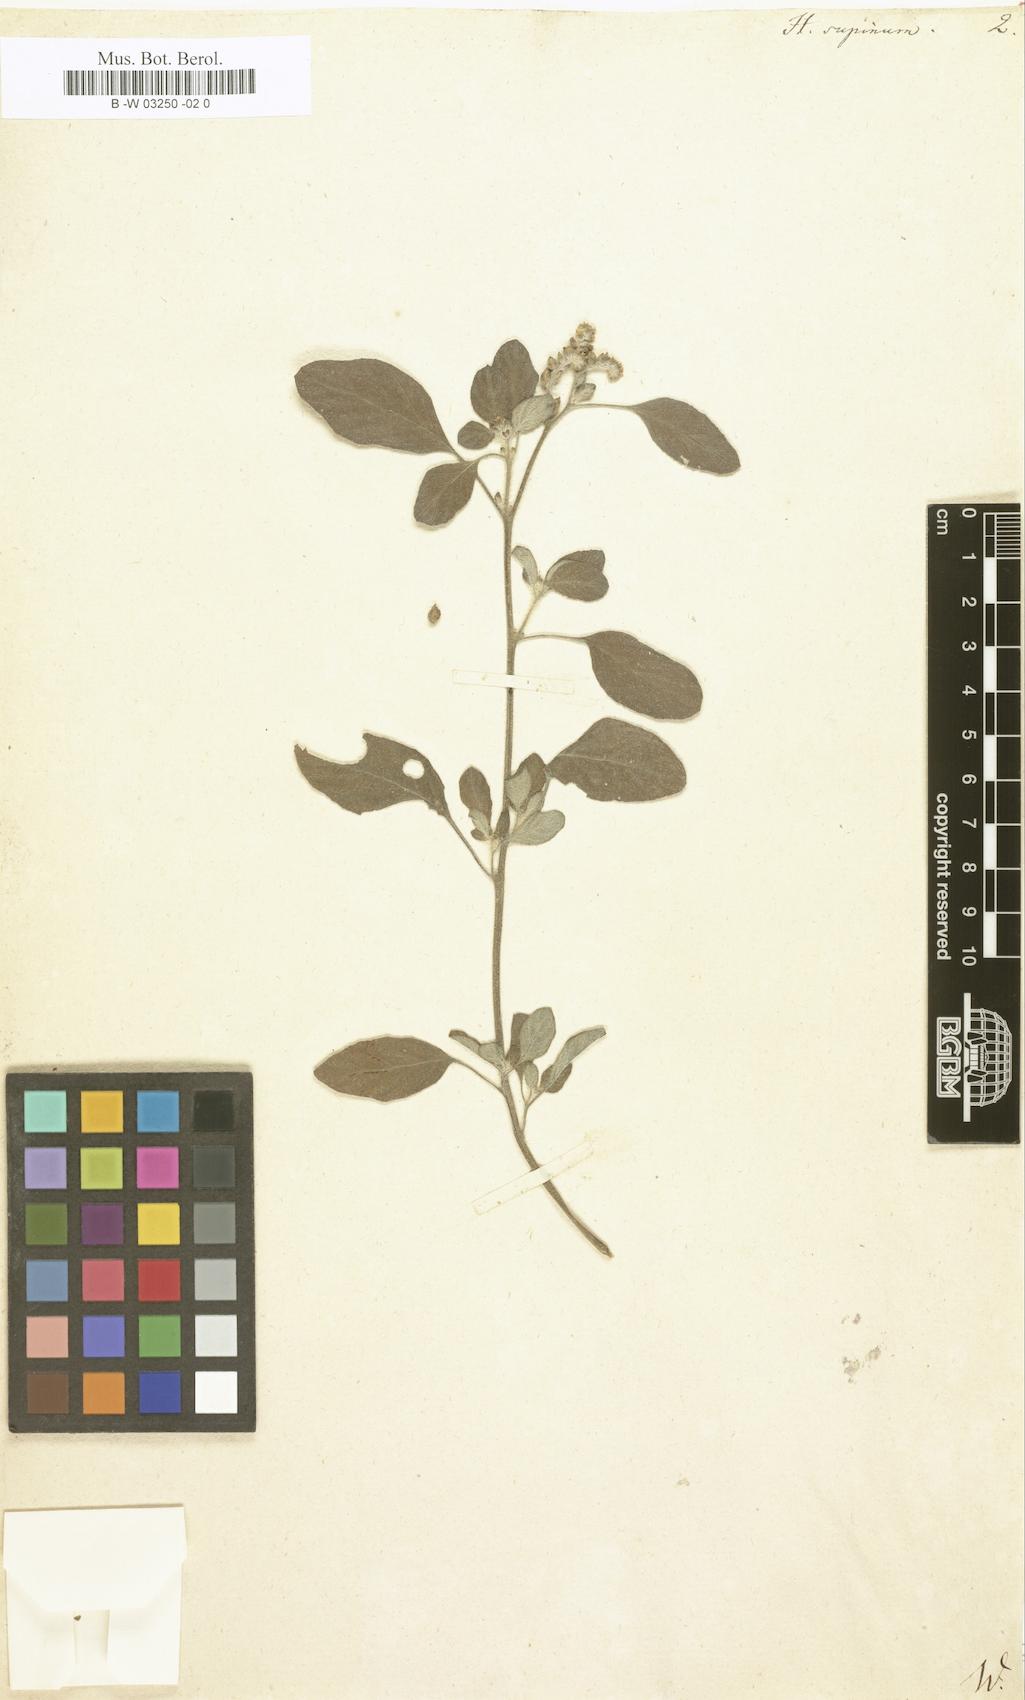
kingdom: Plantae
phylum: Tracheophyta
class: Magnoliopsida
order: Boraginales
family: Heliotropiaceae
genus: Heliotropium
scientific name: Heliotropium supinum
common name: Dwarf heliotrope
